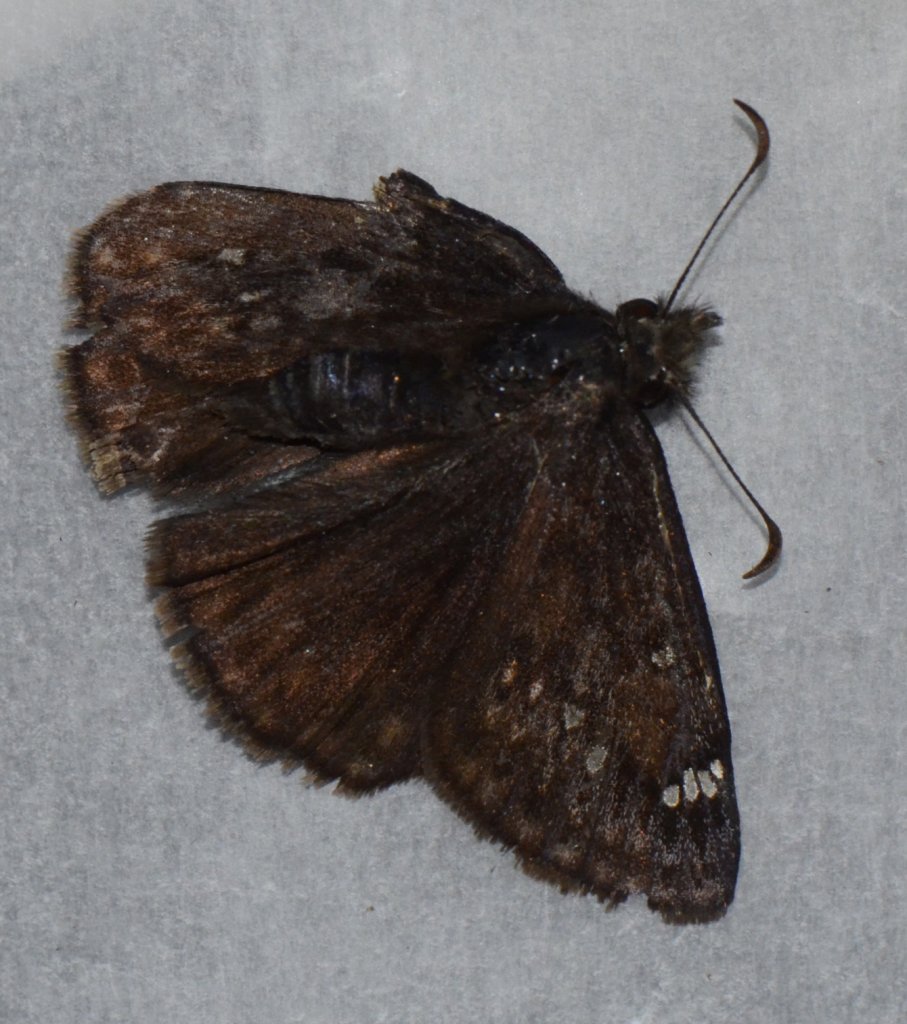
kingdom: Animalia
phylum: Arthropoda
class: Insecta
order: Lepidoptera
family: Hesperiidae
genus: Gesta
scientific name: Gesta
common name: Juvenal's Duskywing
